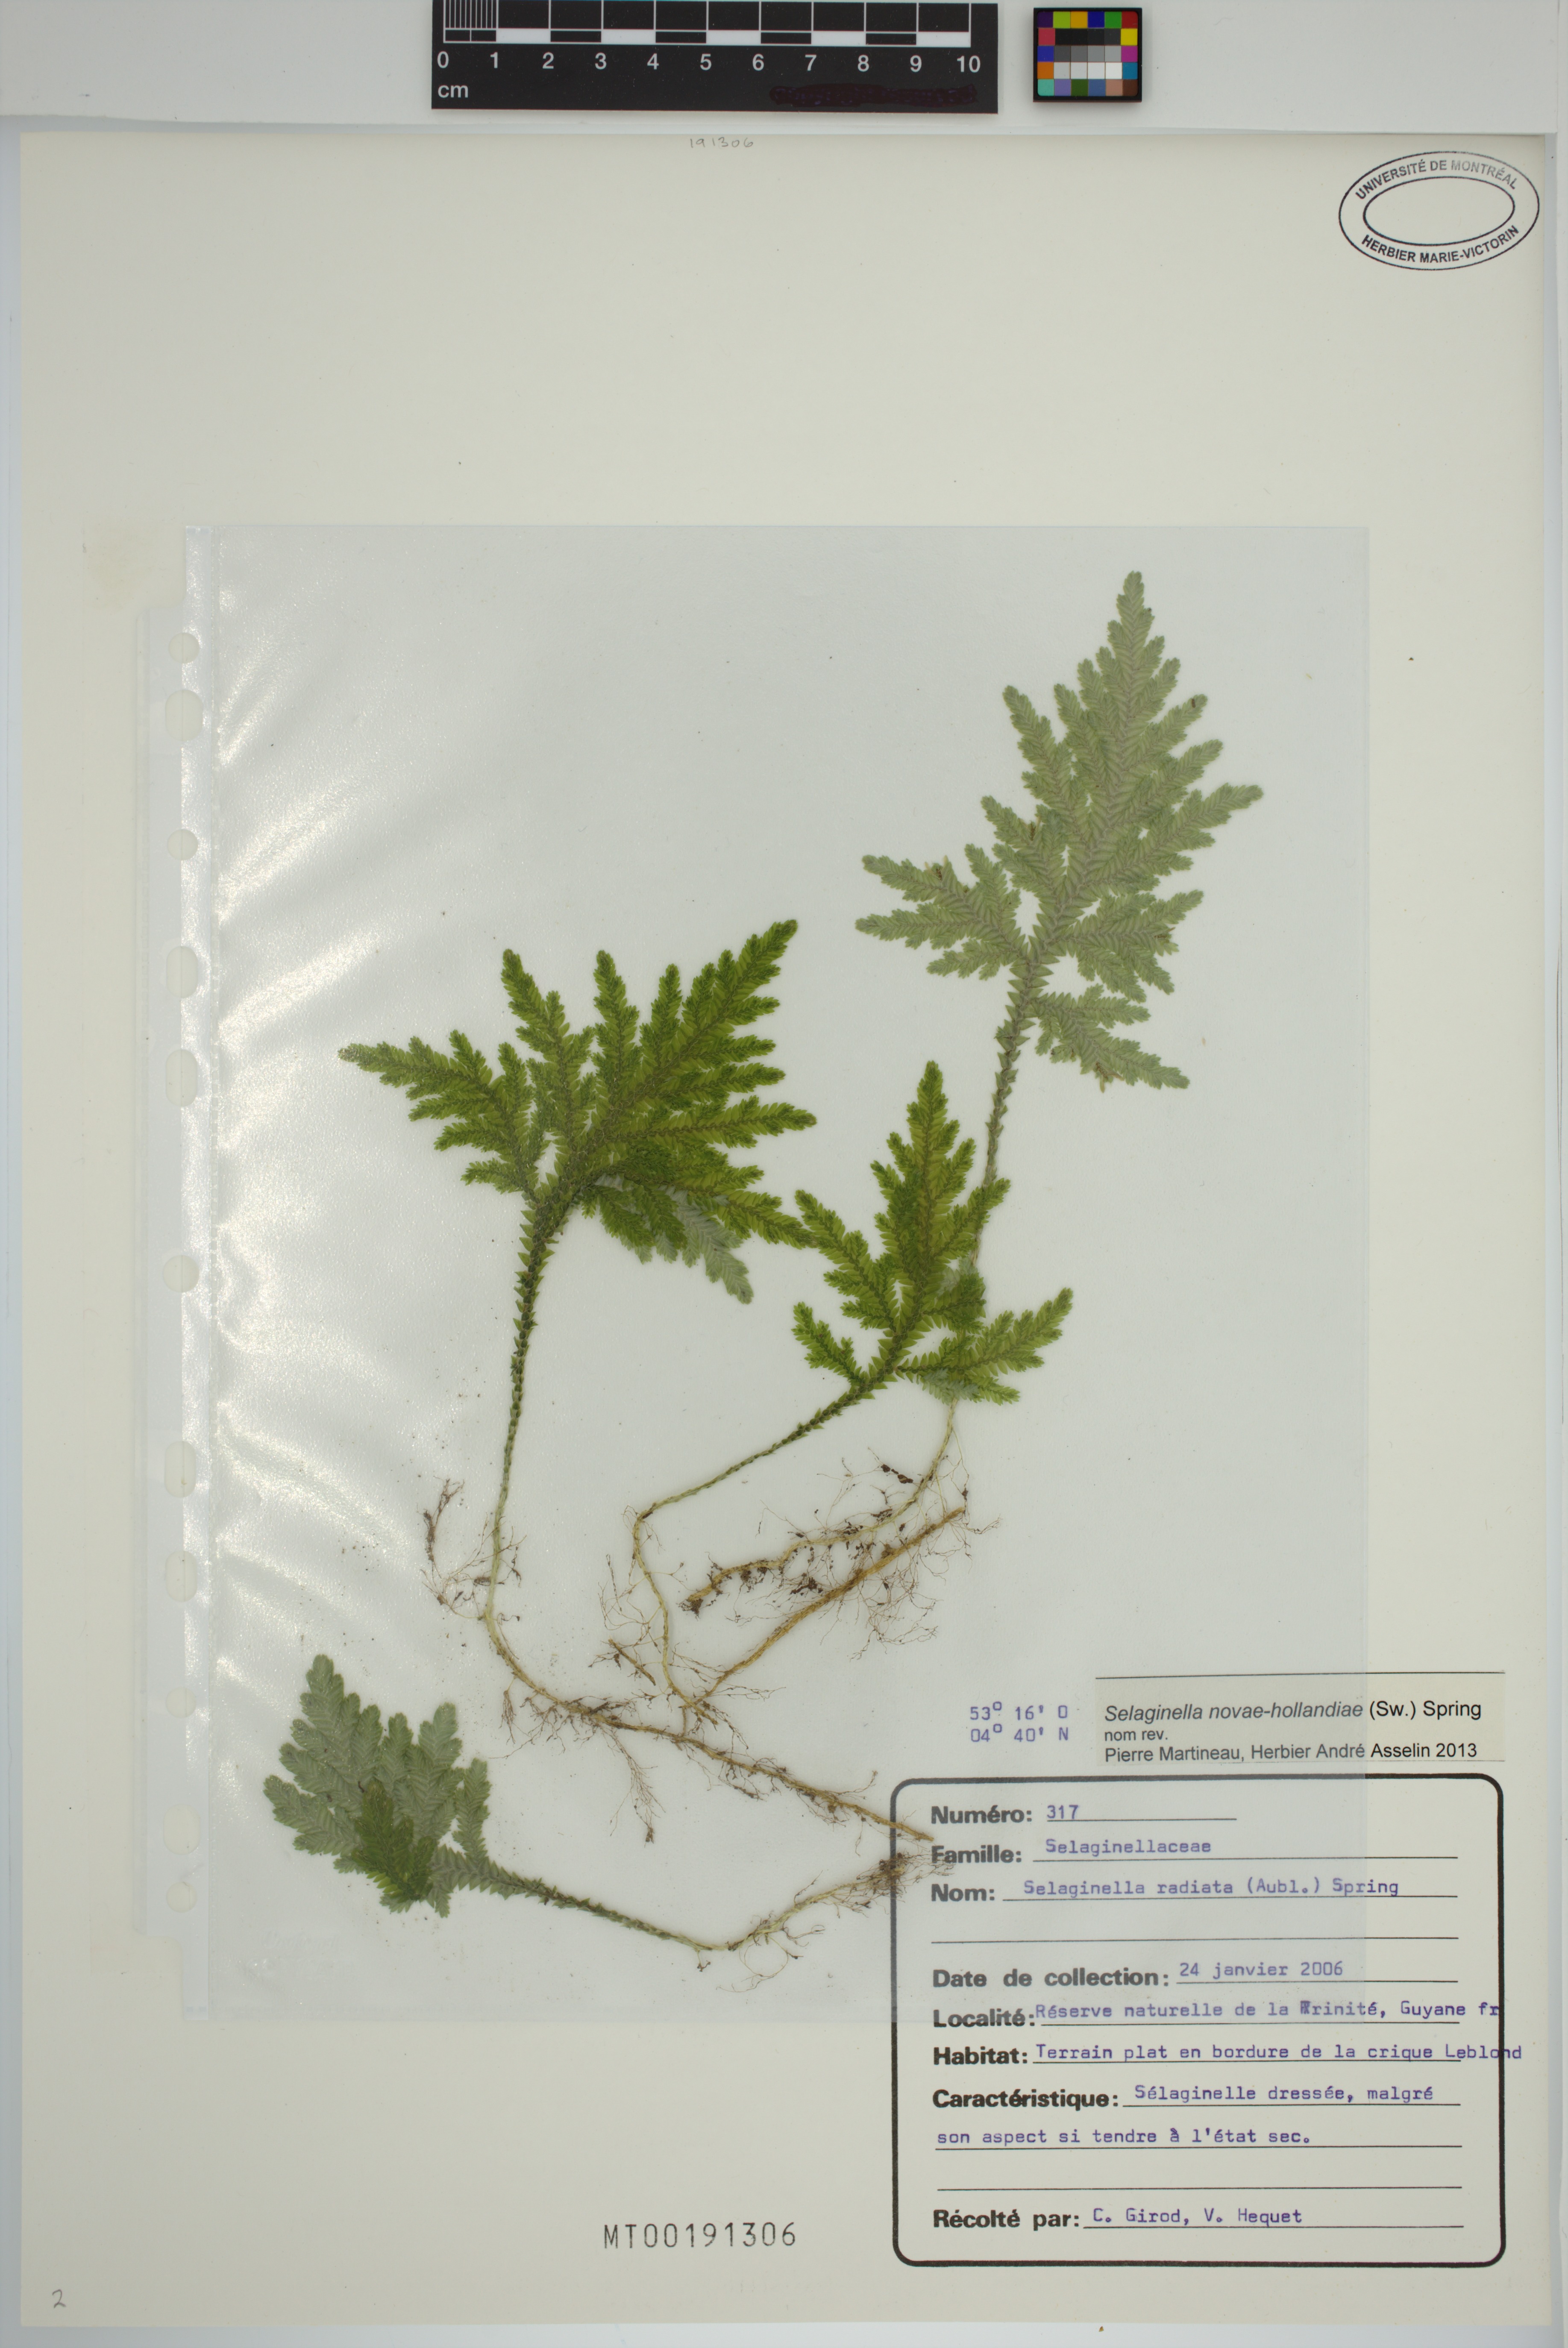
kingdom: Plantae
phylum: Tracheophyta
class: Lycopodiopsida
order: Selaginellales
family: Selaginellaceae
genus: Selaginella
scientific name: Selaginella novae-hollandiae
